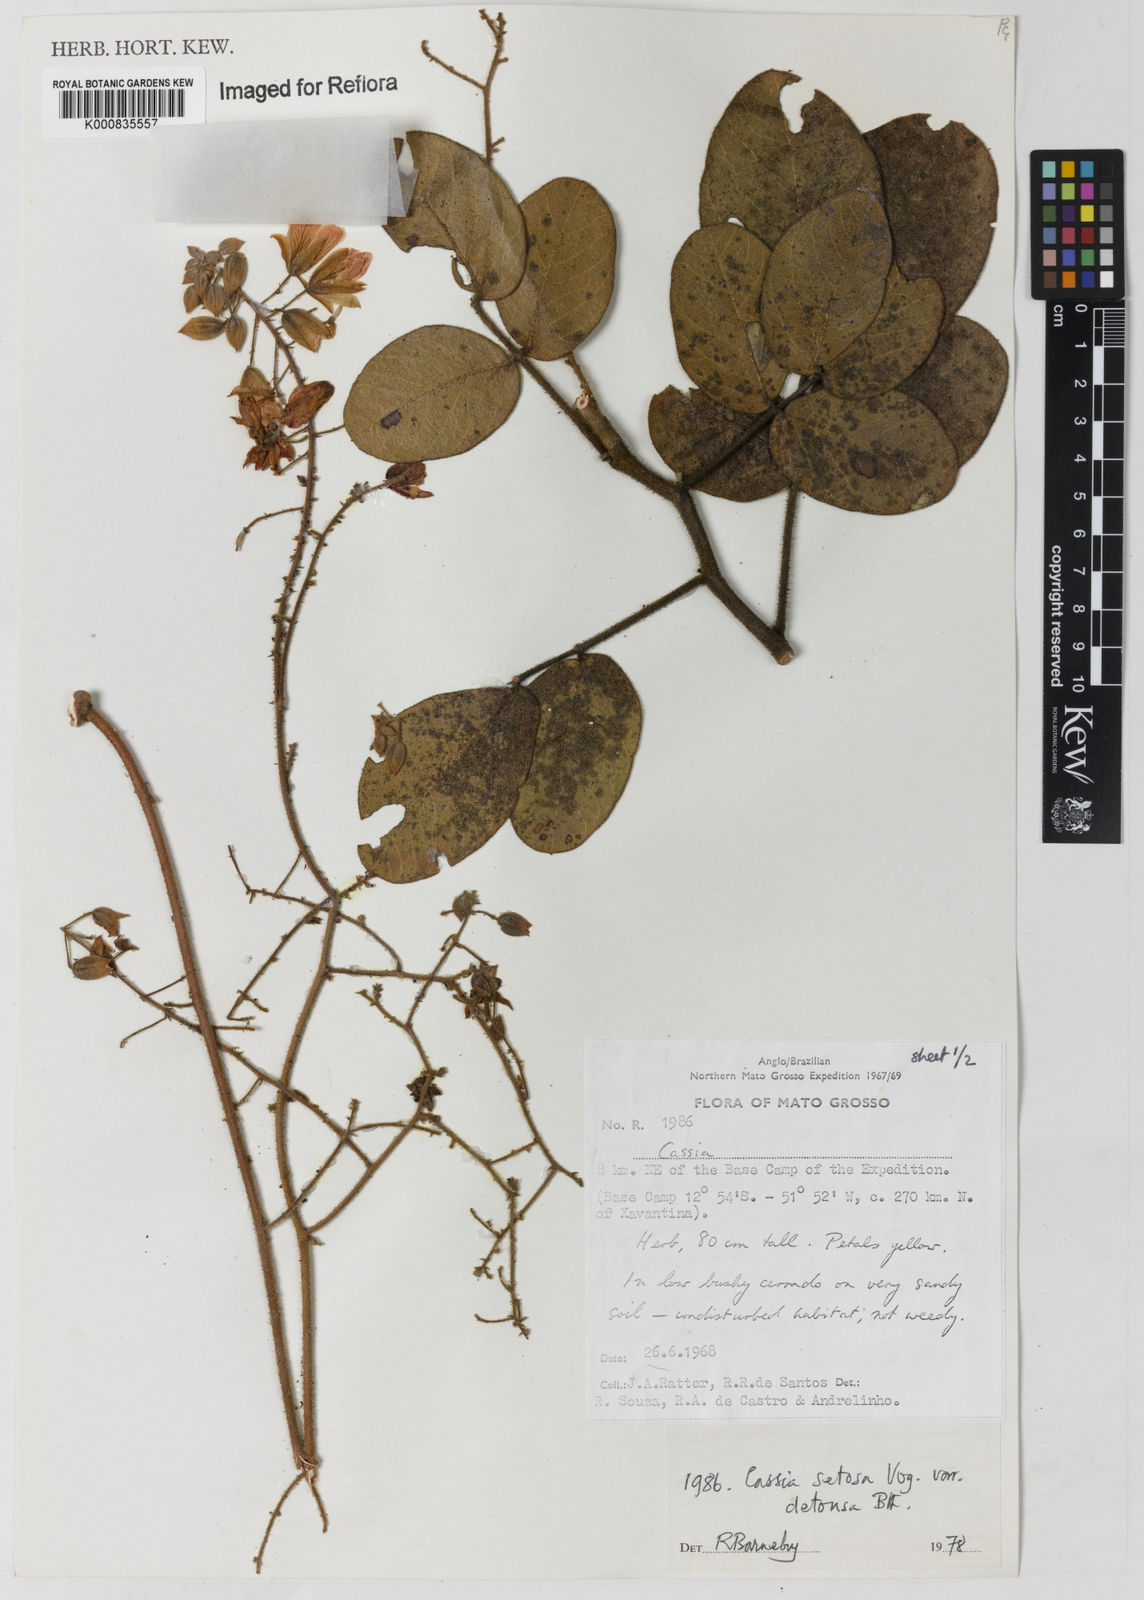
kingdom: Plantae
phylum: Tracheophyta
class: Magnoliopsida
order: Fabales
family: Fabaceae
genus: Chamaecrista
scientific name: Chamaecrista setosa
